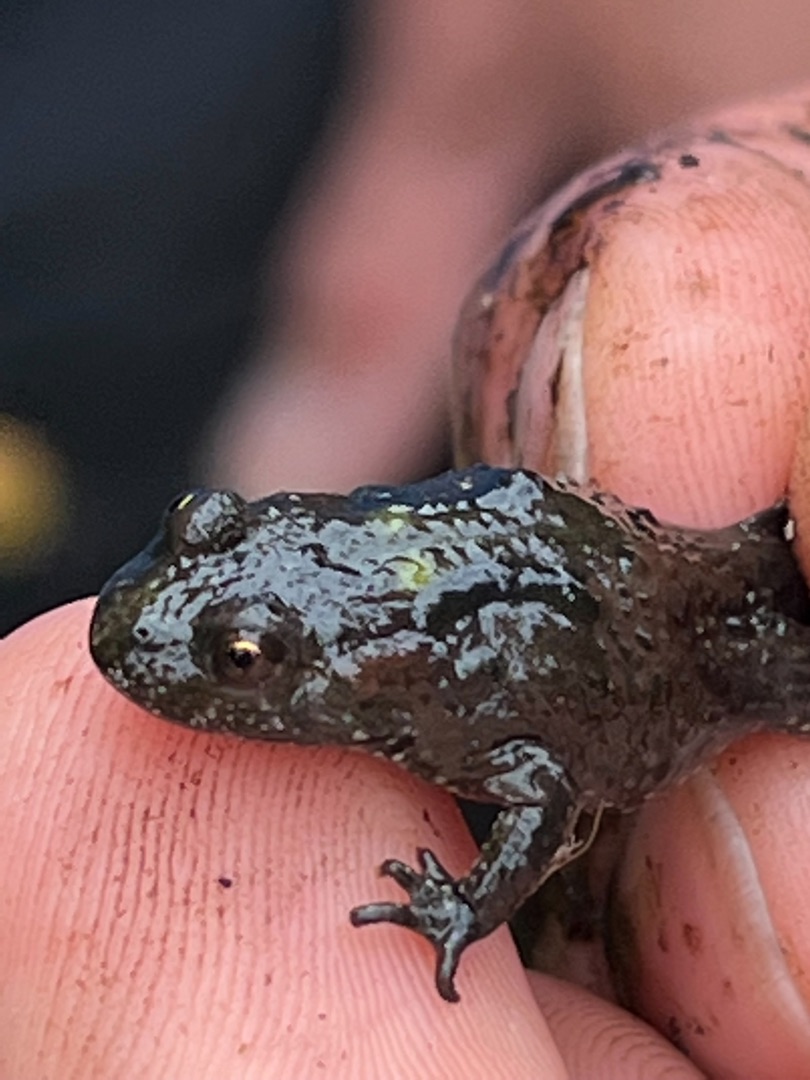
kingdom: Animalia
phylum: Chordata
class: Amphibia
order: Anura
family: Bombinatoridae
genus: Bombina
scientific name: Bombina bombina
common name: Klokkefrø
